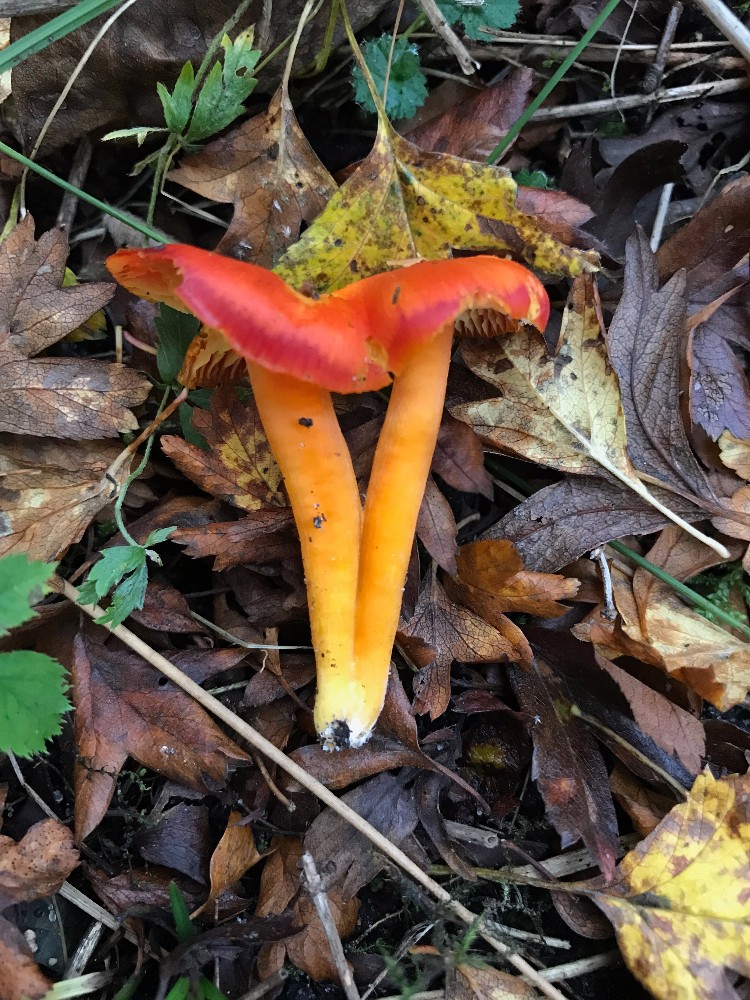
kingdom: Fungi
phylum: Basidiomycota
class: Agaricomycetes
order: Agaricales
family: Hygrophoraceae
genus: Hygrocybe
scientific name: Hygrocybe coccinea
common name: cinnober-vokshat
